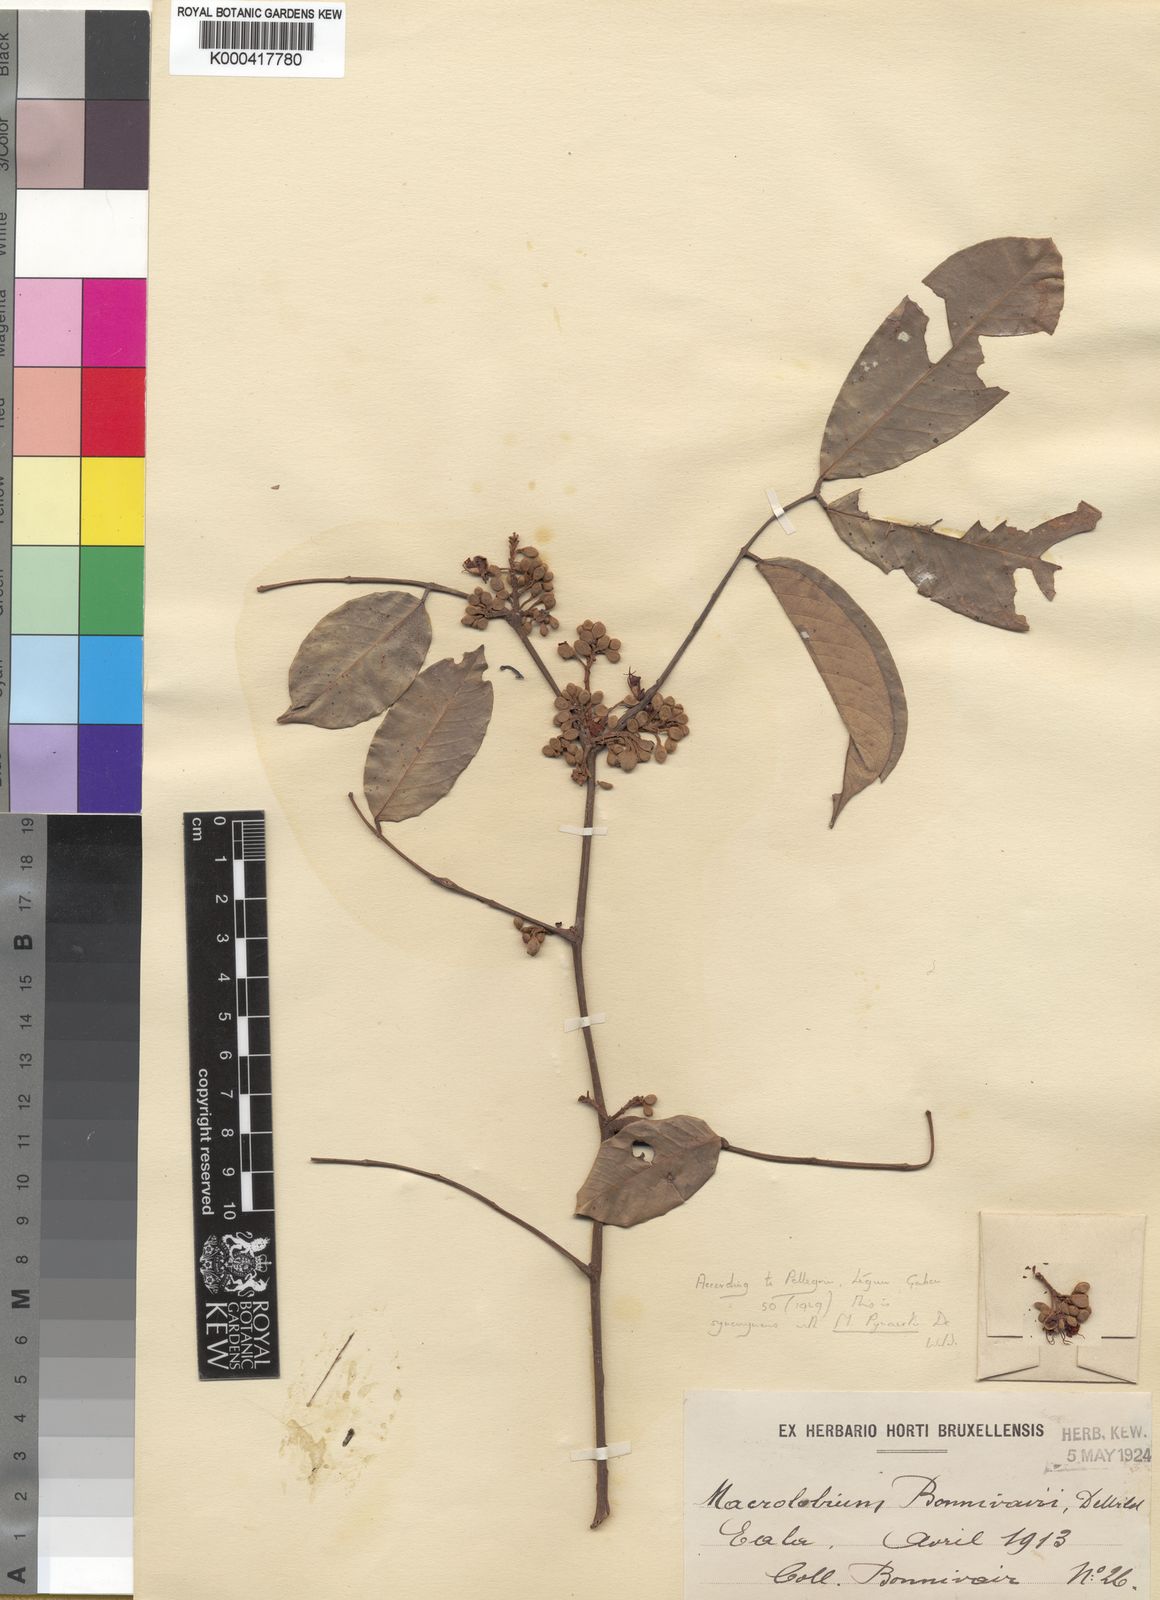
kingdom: Plantae
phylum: Tracheophyta
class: Magnoliopsida
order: Fabales
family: Fabaceae
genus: Anthonotha
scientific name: Anthonotha pynaertii
